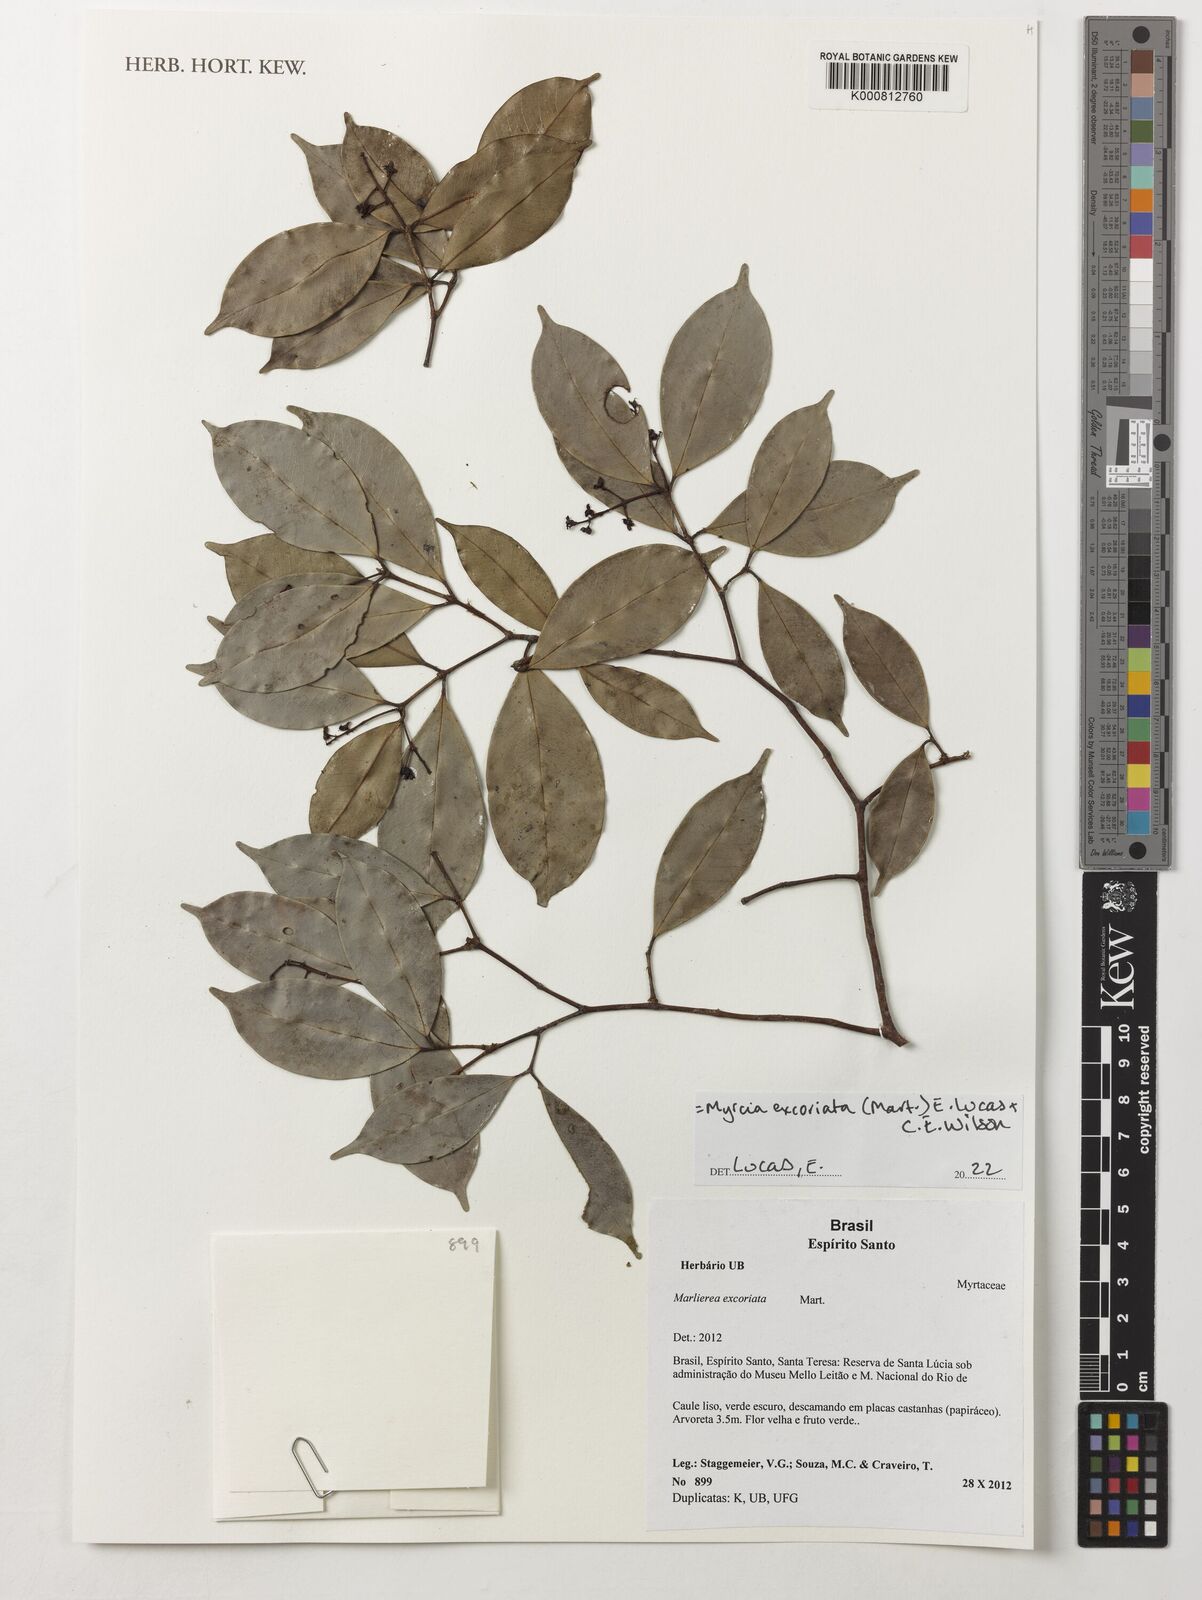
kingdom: Plantae
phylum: Tracheophyta
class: Magnoliopsida
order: Myrtales
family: Myrtaceae
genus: Myrcia
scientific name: Myrcia excoriata
